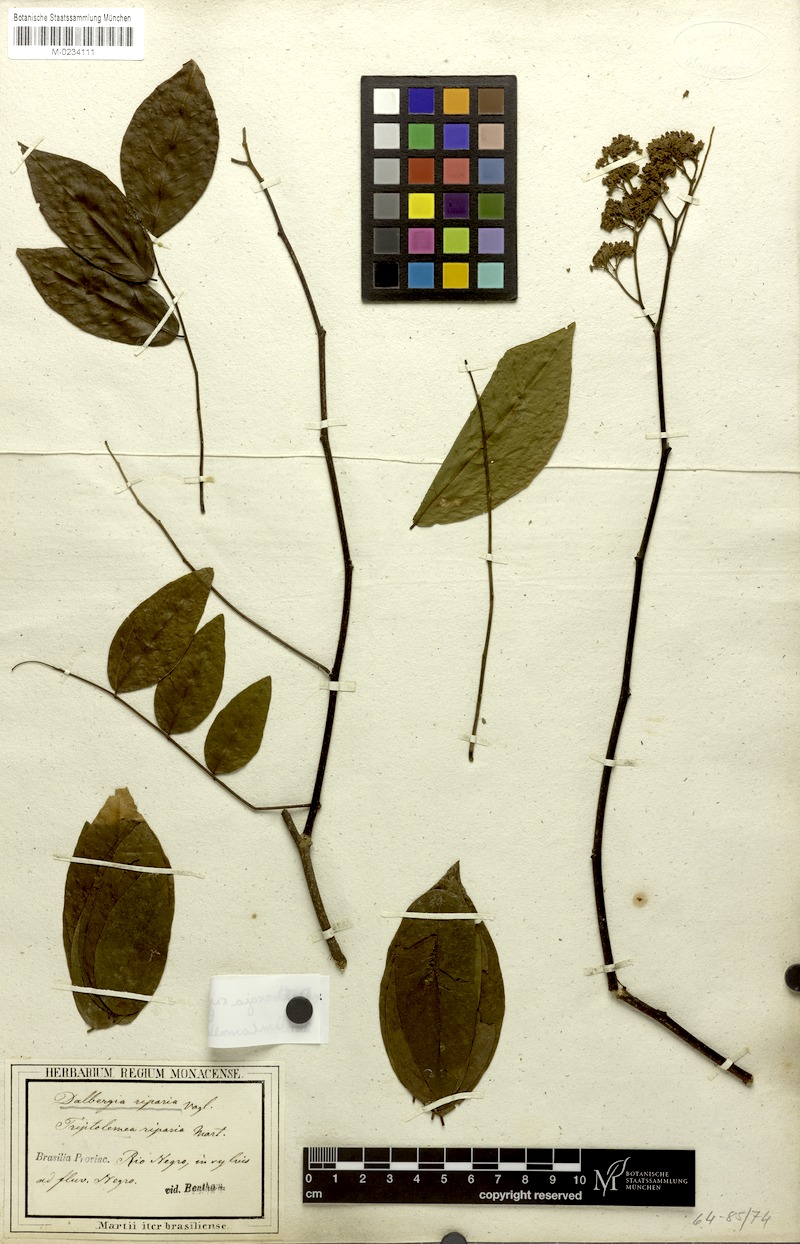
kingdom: Plantae
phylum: Tracheophyta
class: Magnoliopsida
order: Fabales
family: Fabaceae
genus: Dalbergia
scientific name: Dalbergia riparia
